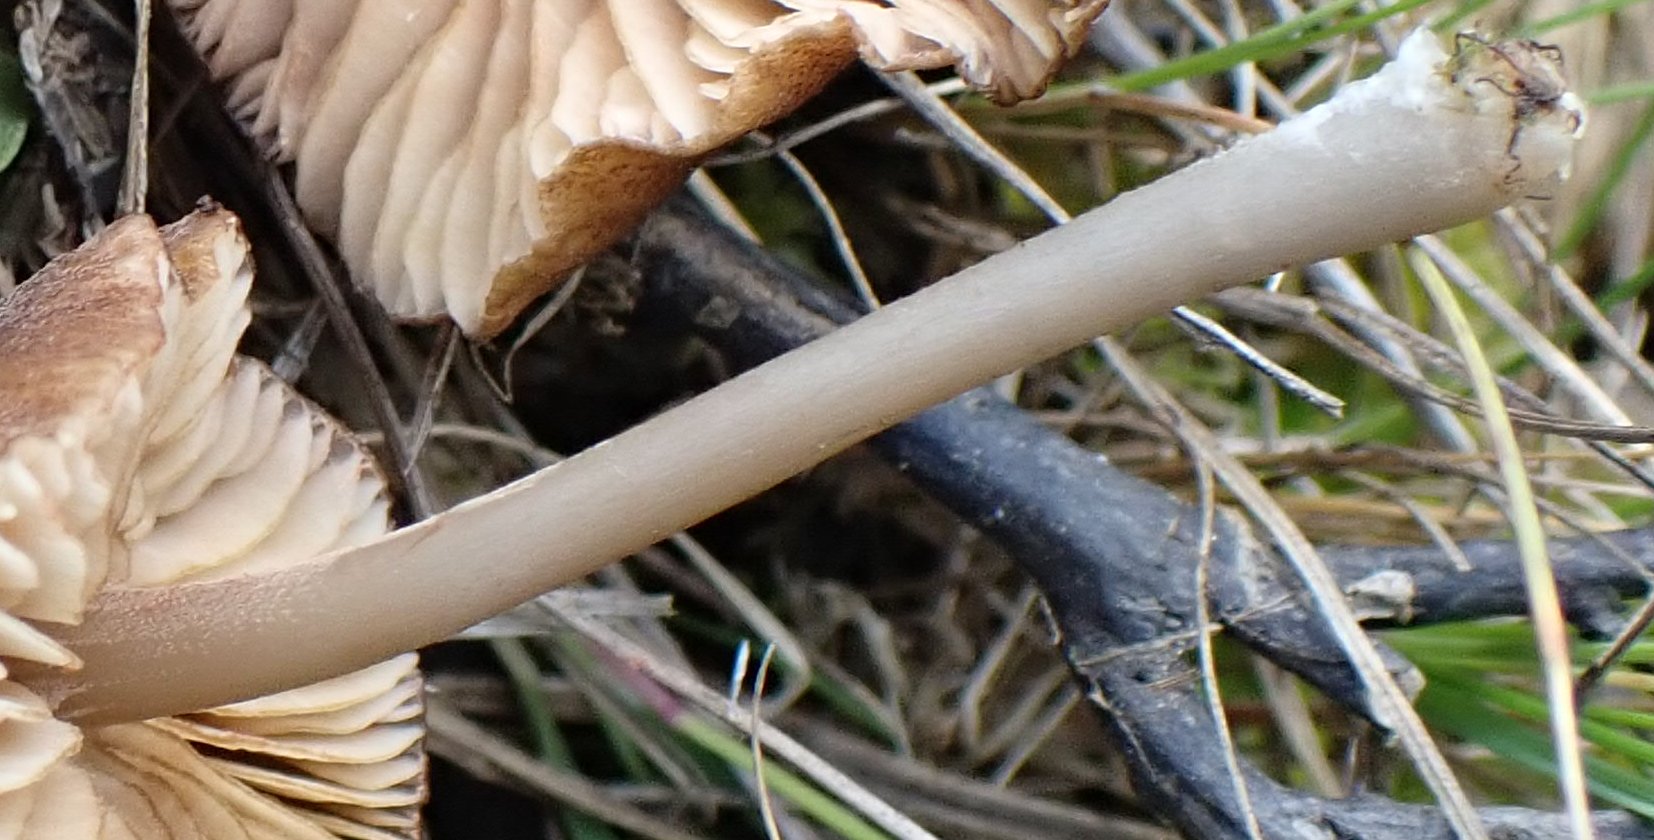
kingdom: Fungi
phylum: Basidiomycota
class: Agaricomycetes
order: Agaricales
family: Entolomataceae
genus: Entoloma
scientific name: Entoloma sphagnorum
